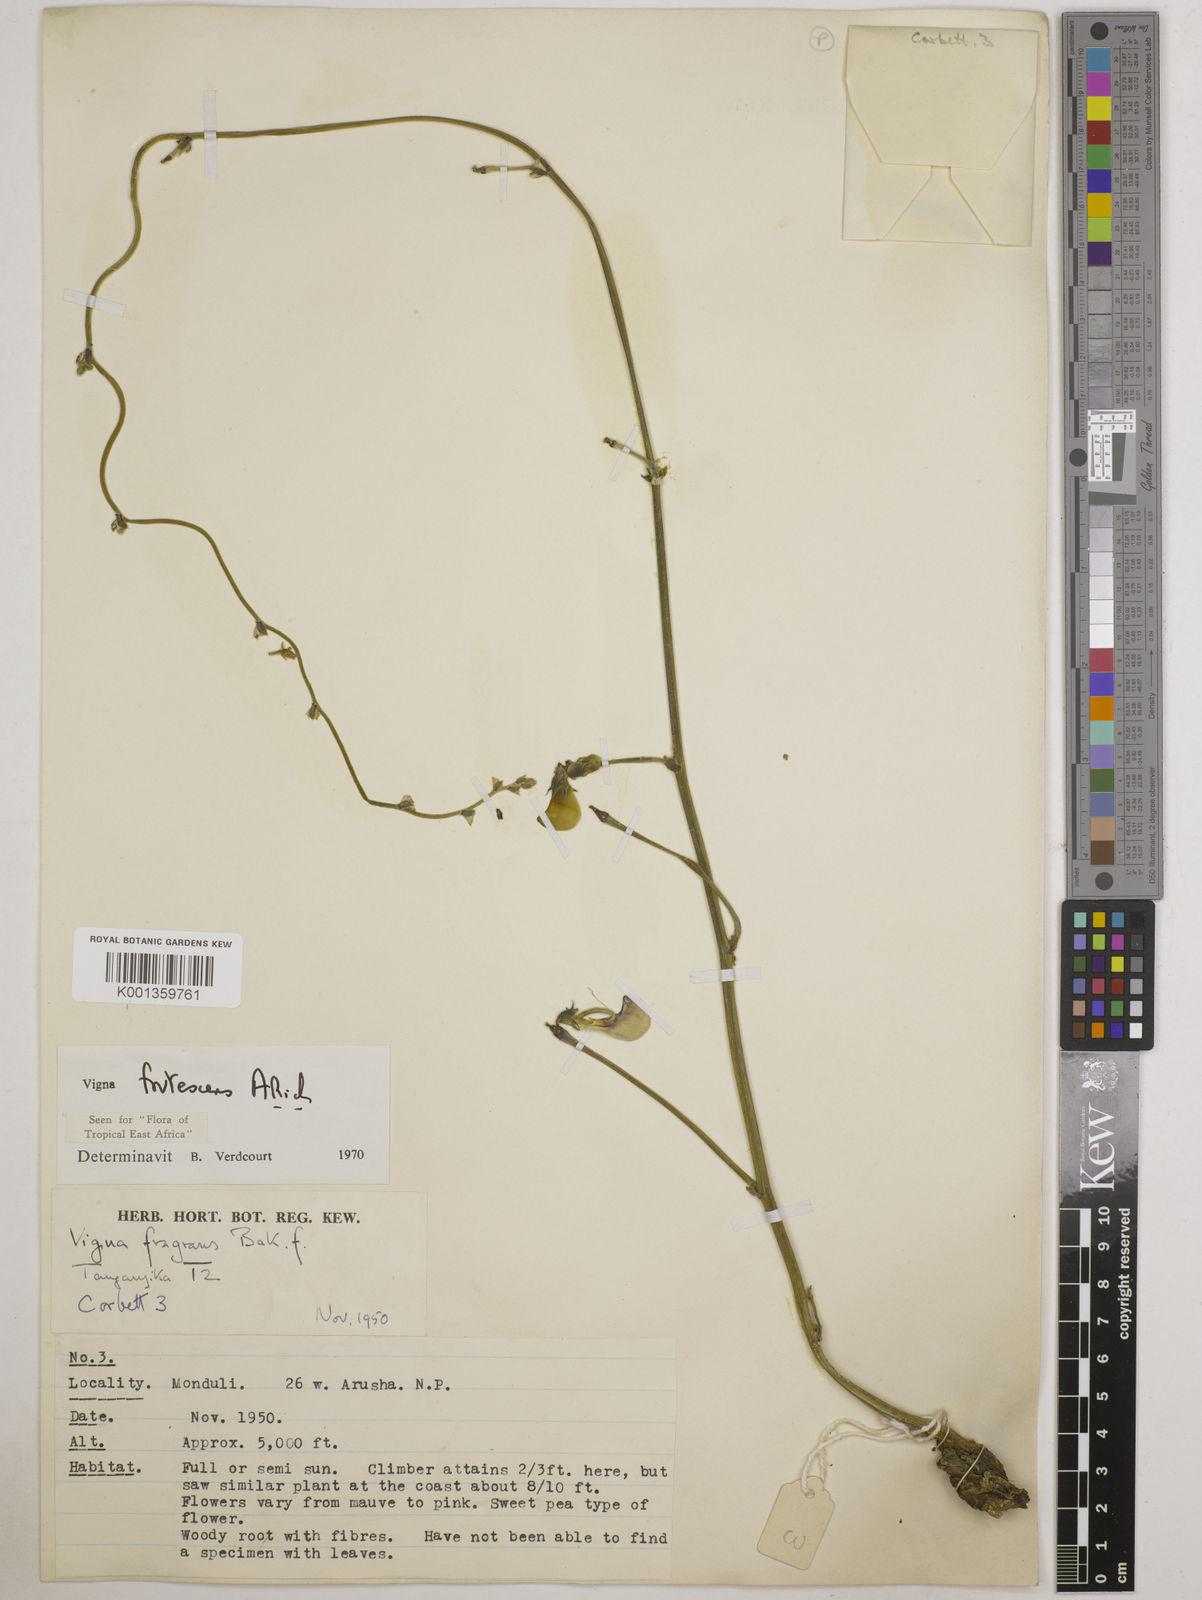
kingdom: Plantae
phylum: Tracheophyta
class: Magnoliopsida
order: Fabales
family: Fabaceae
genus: Vigna
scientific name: Vigna frutescens
